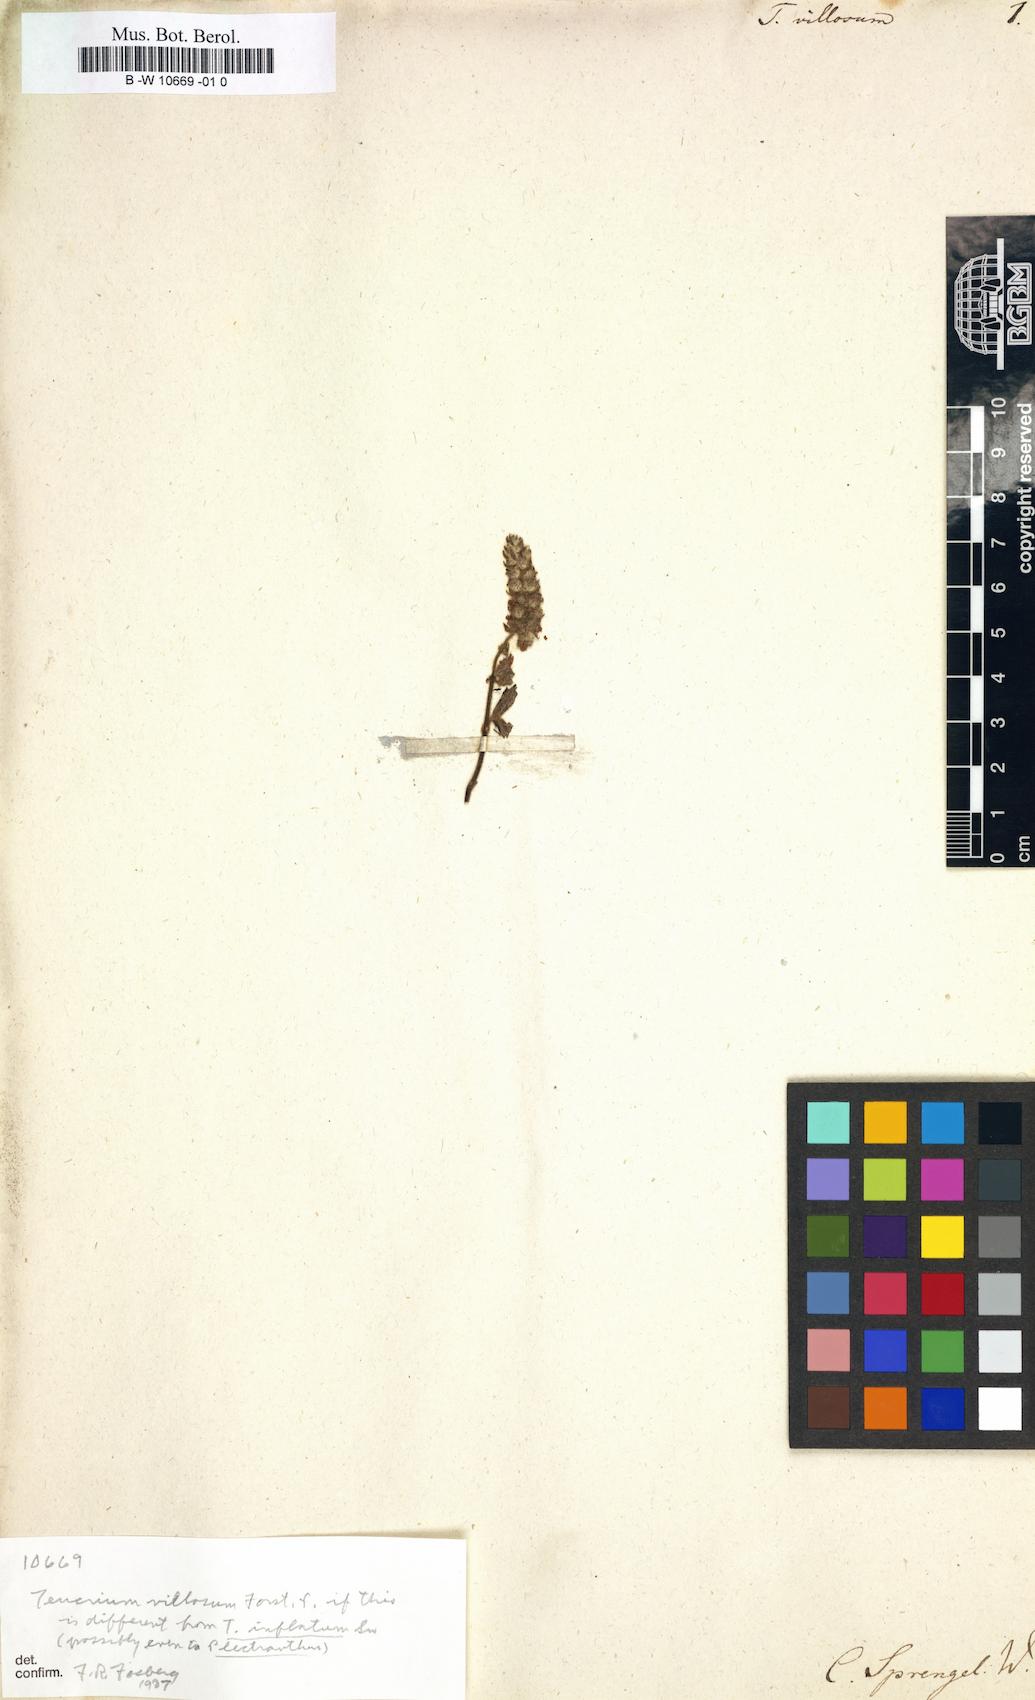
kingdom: Plantae
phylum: Tracheophyta
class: Magnoliopsida
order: Lamiales
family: Lamiaceae
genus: Teucrium
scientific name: Teucrium vesicarium
